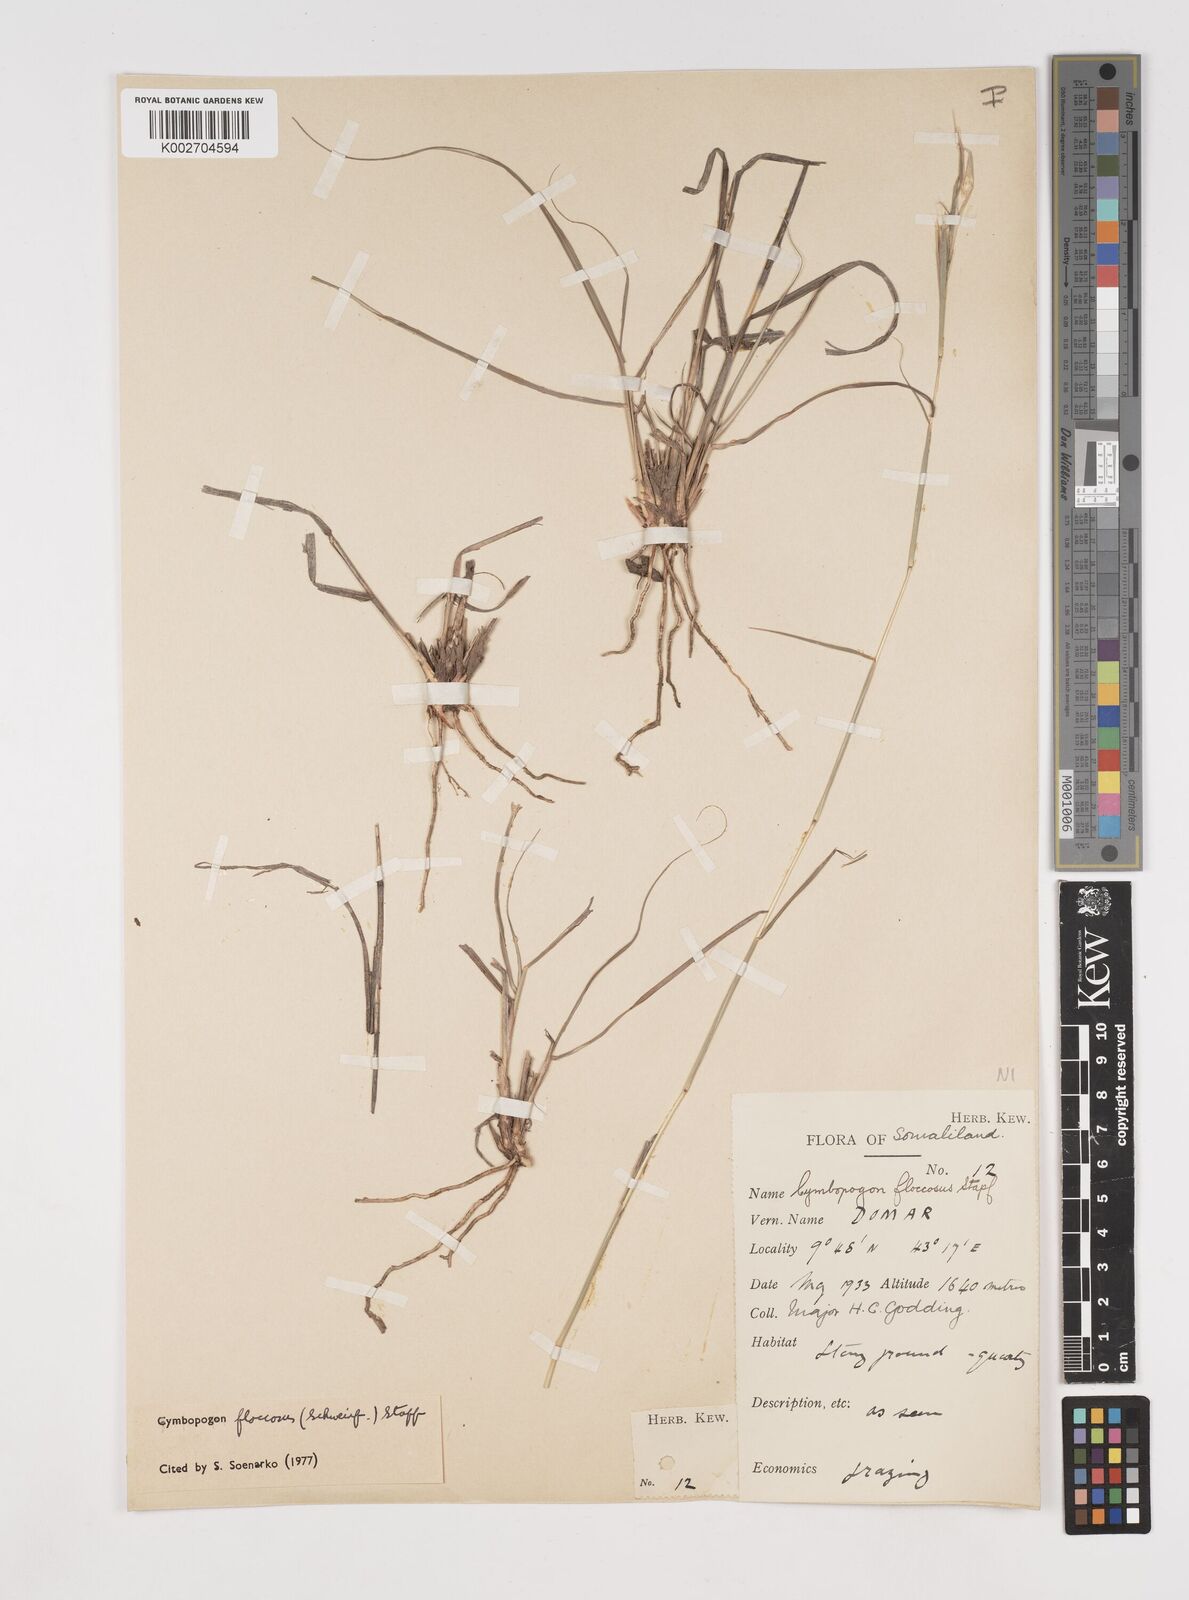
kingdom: Plantae
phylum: Tracheophyta
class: Liliopsida
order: Poales
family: Poaceae
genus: Cymbopogon
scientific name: Cymbopogon commutatus
